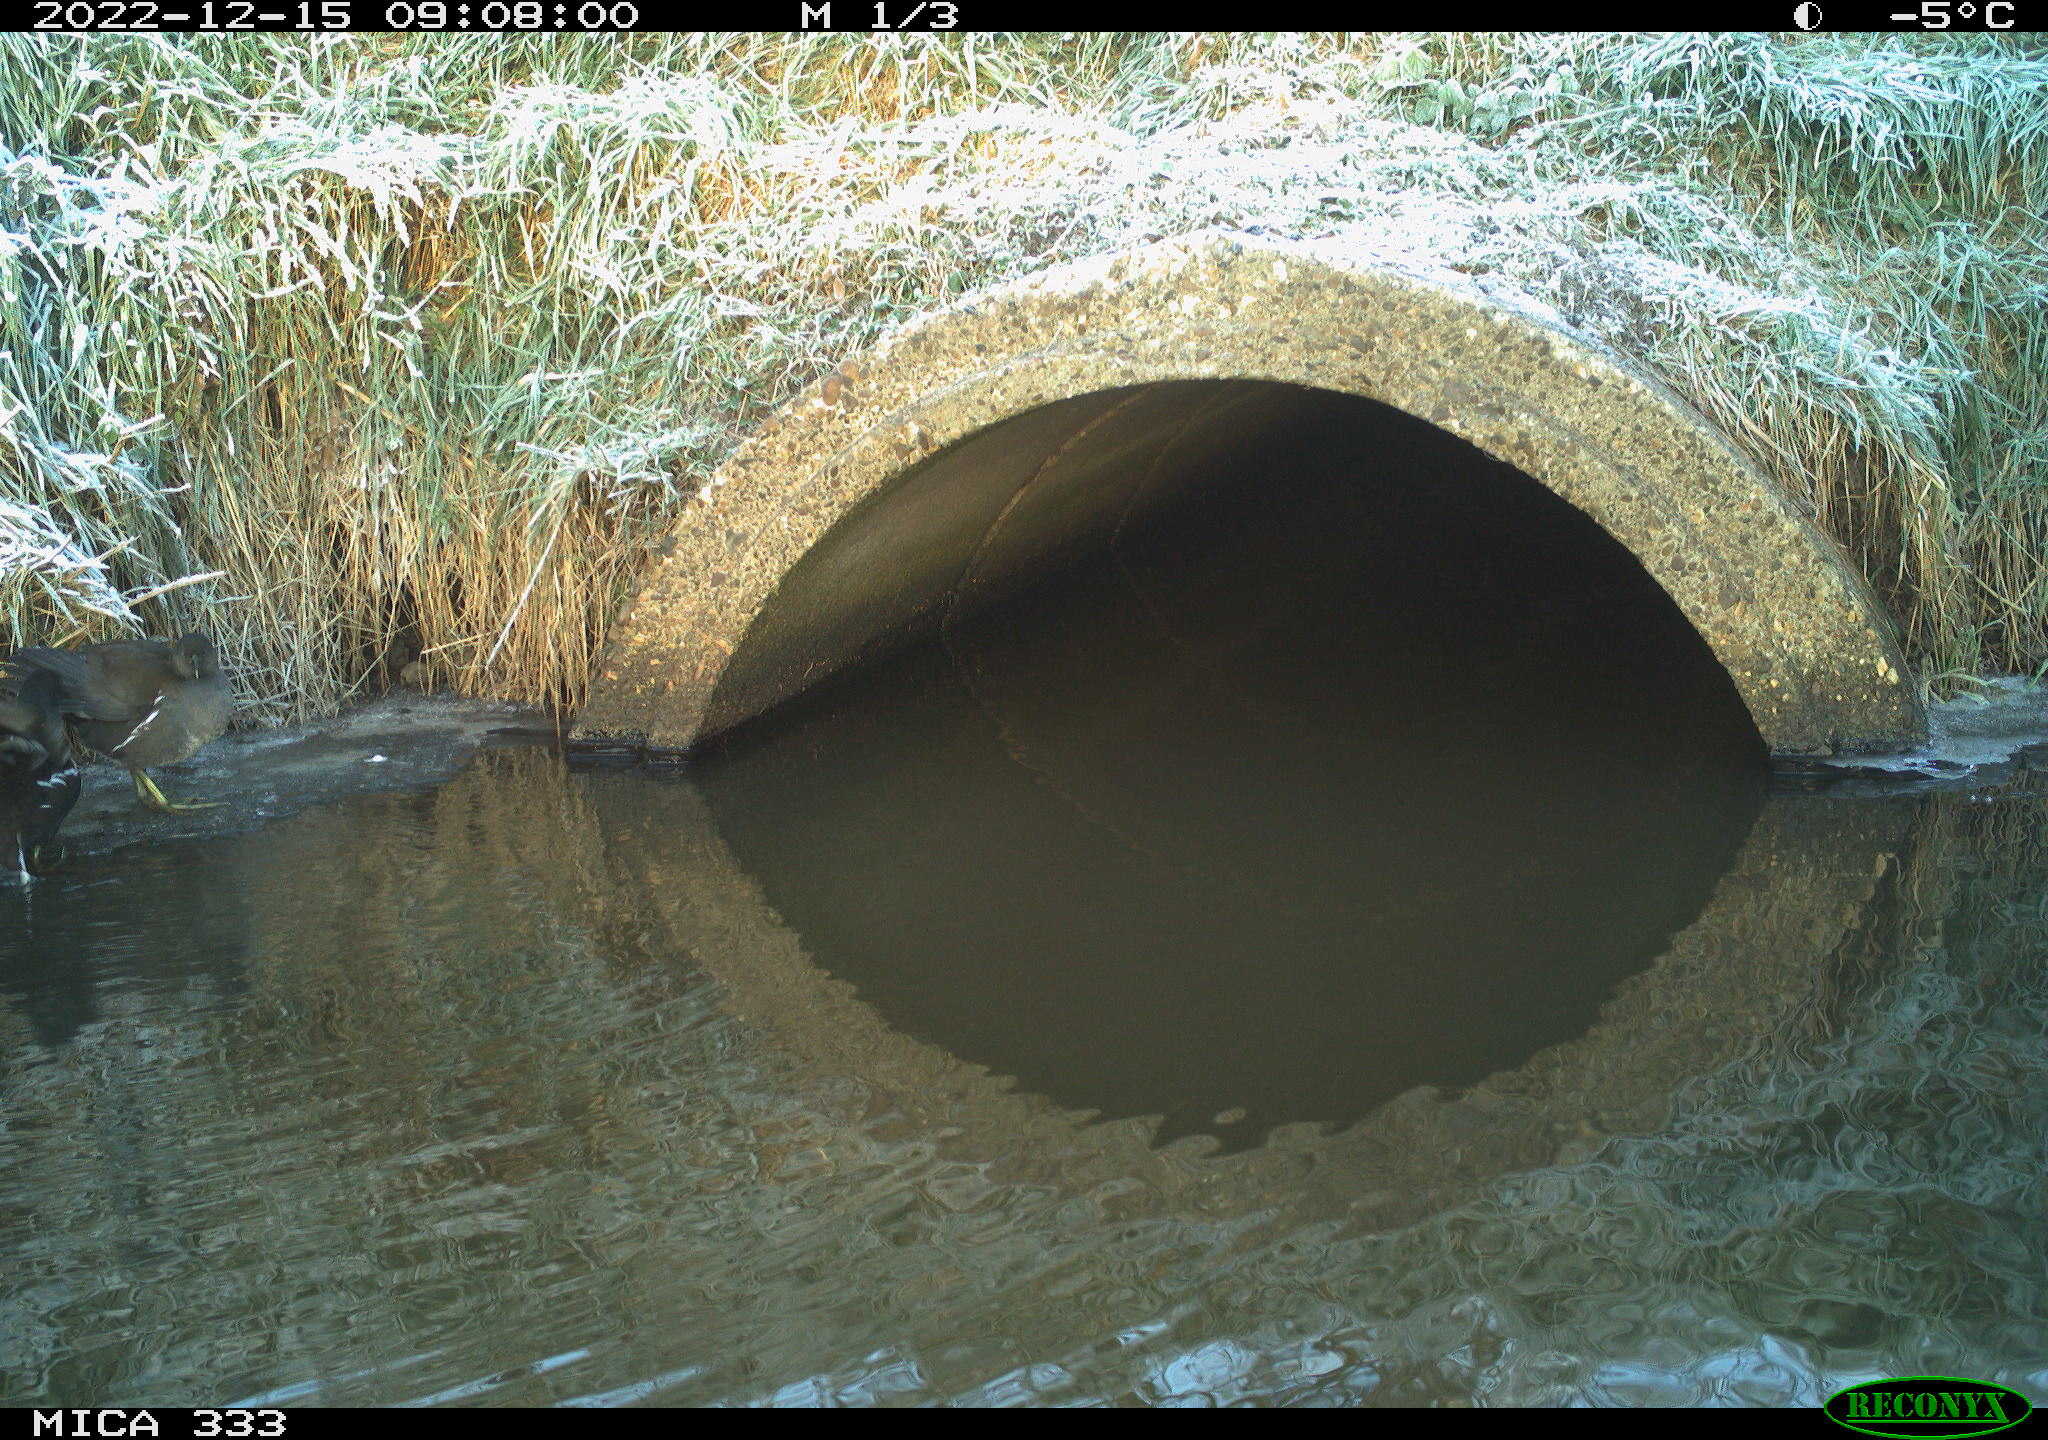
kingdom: Animalia
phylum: Chordata
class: Aves
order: Gruiformes
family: Rallidae
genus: Gallinula
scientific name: Gallinula chloropus
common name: Common moorhen
